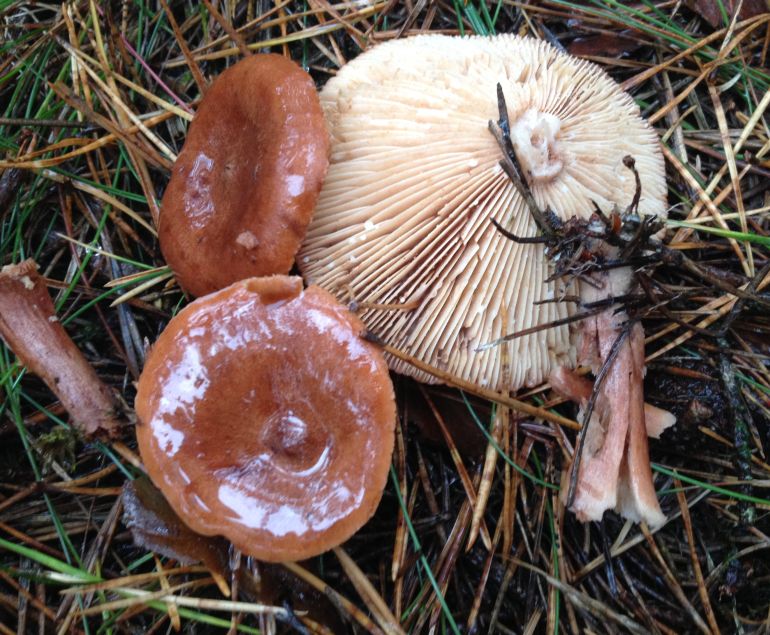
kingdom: Fungi
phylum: Basidiomycota
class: Agaricomycetes
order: Russulales
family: Russulaceae
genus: Lactarius
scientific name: Lactarius rufus
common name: rødbrun mælkehat
